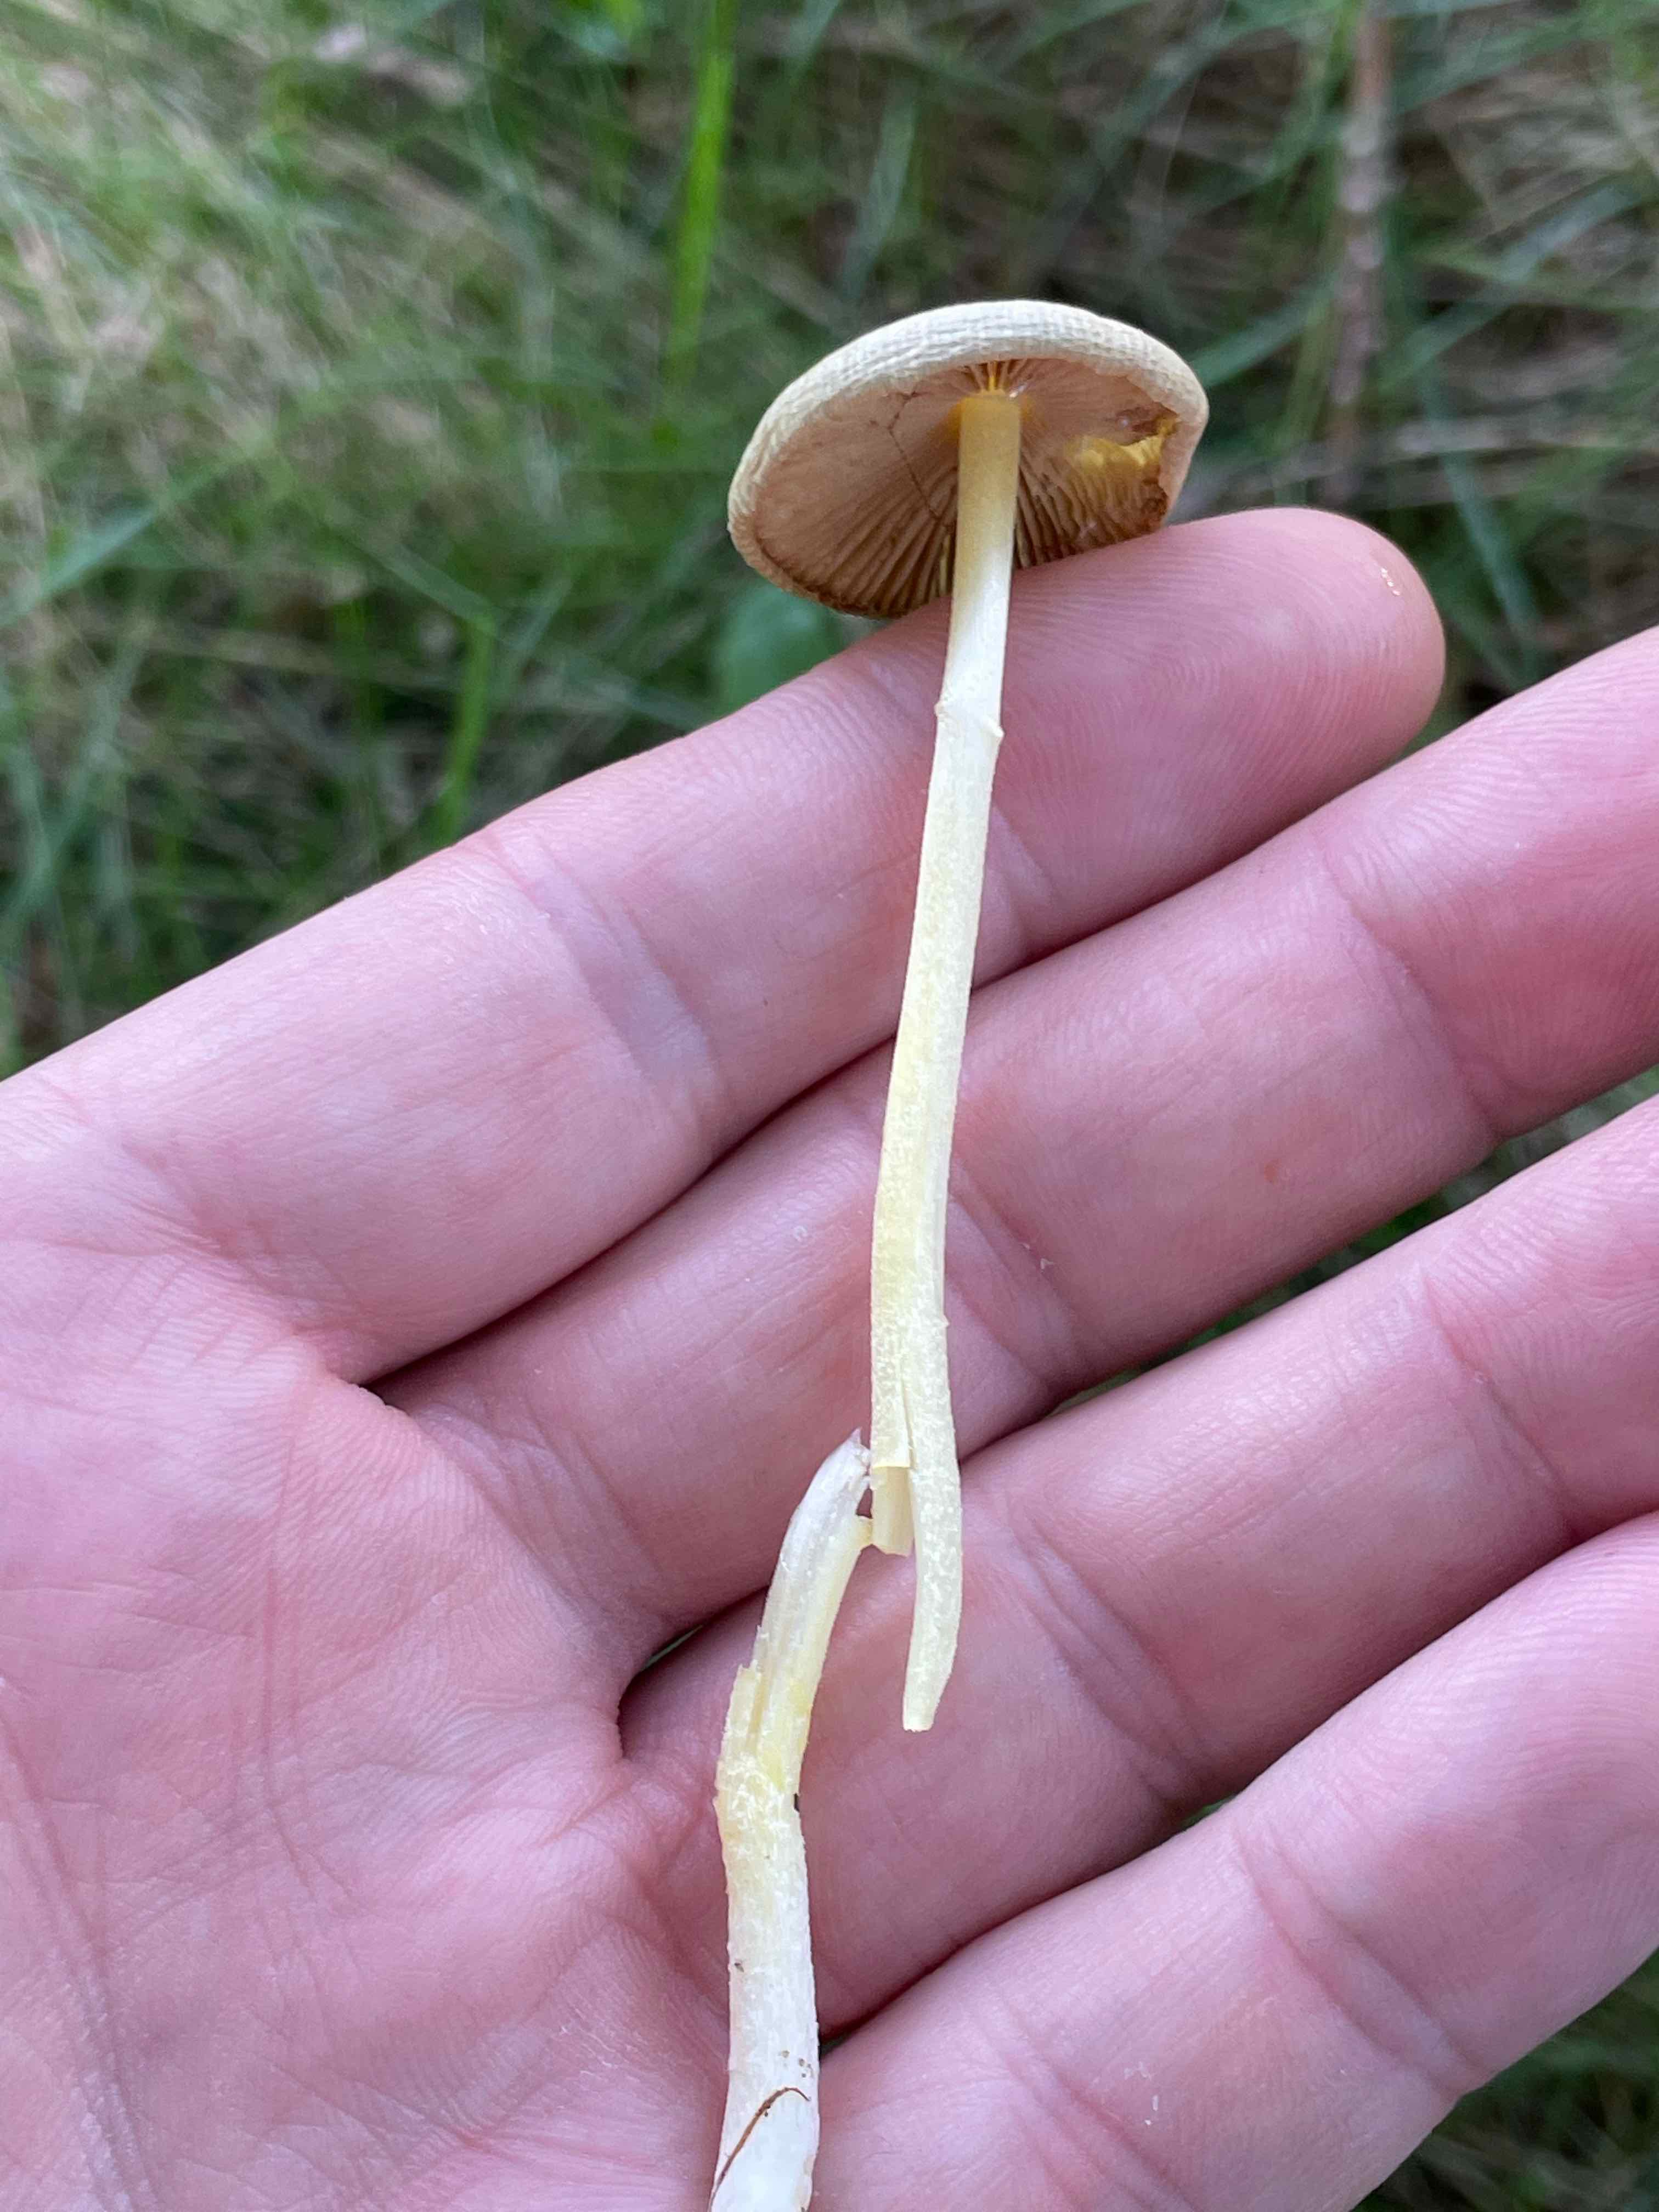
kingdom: Fungi
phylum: Basidiomycota
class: Agaricomycetes
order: Agaricales
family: Bolbitiaceae
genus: Bolbitius
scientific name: Bolbitius titubans
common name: almindelig gulhat
